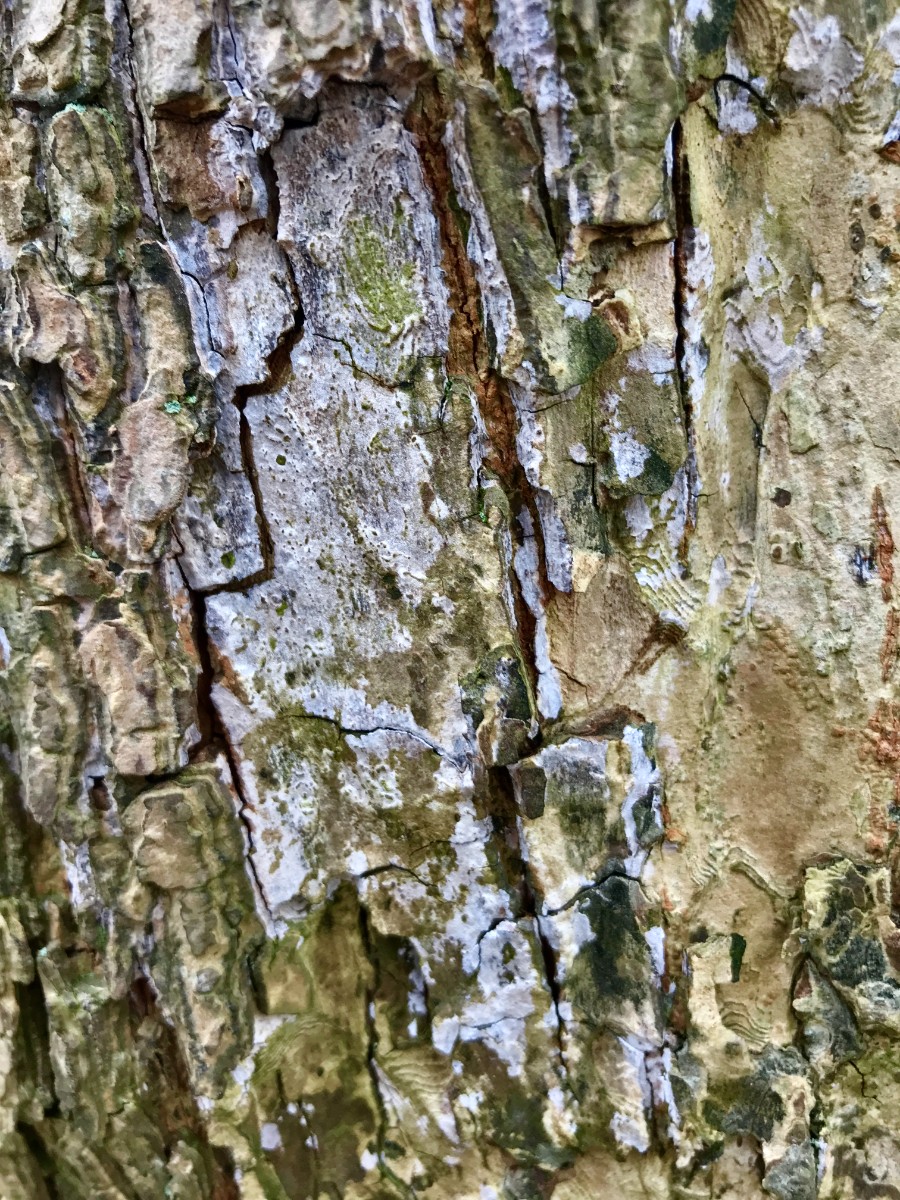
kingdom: Fungi
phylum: Basidiomycota
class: Agaricomycetes
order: Agaricales
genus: Dendrothele
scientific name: Dendrothele acerina
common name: navr-kalkplet
